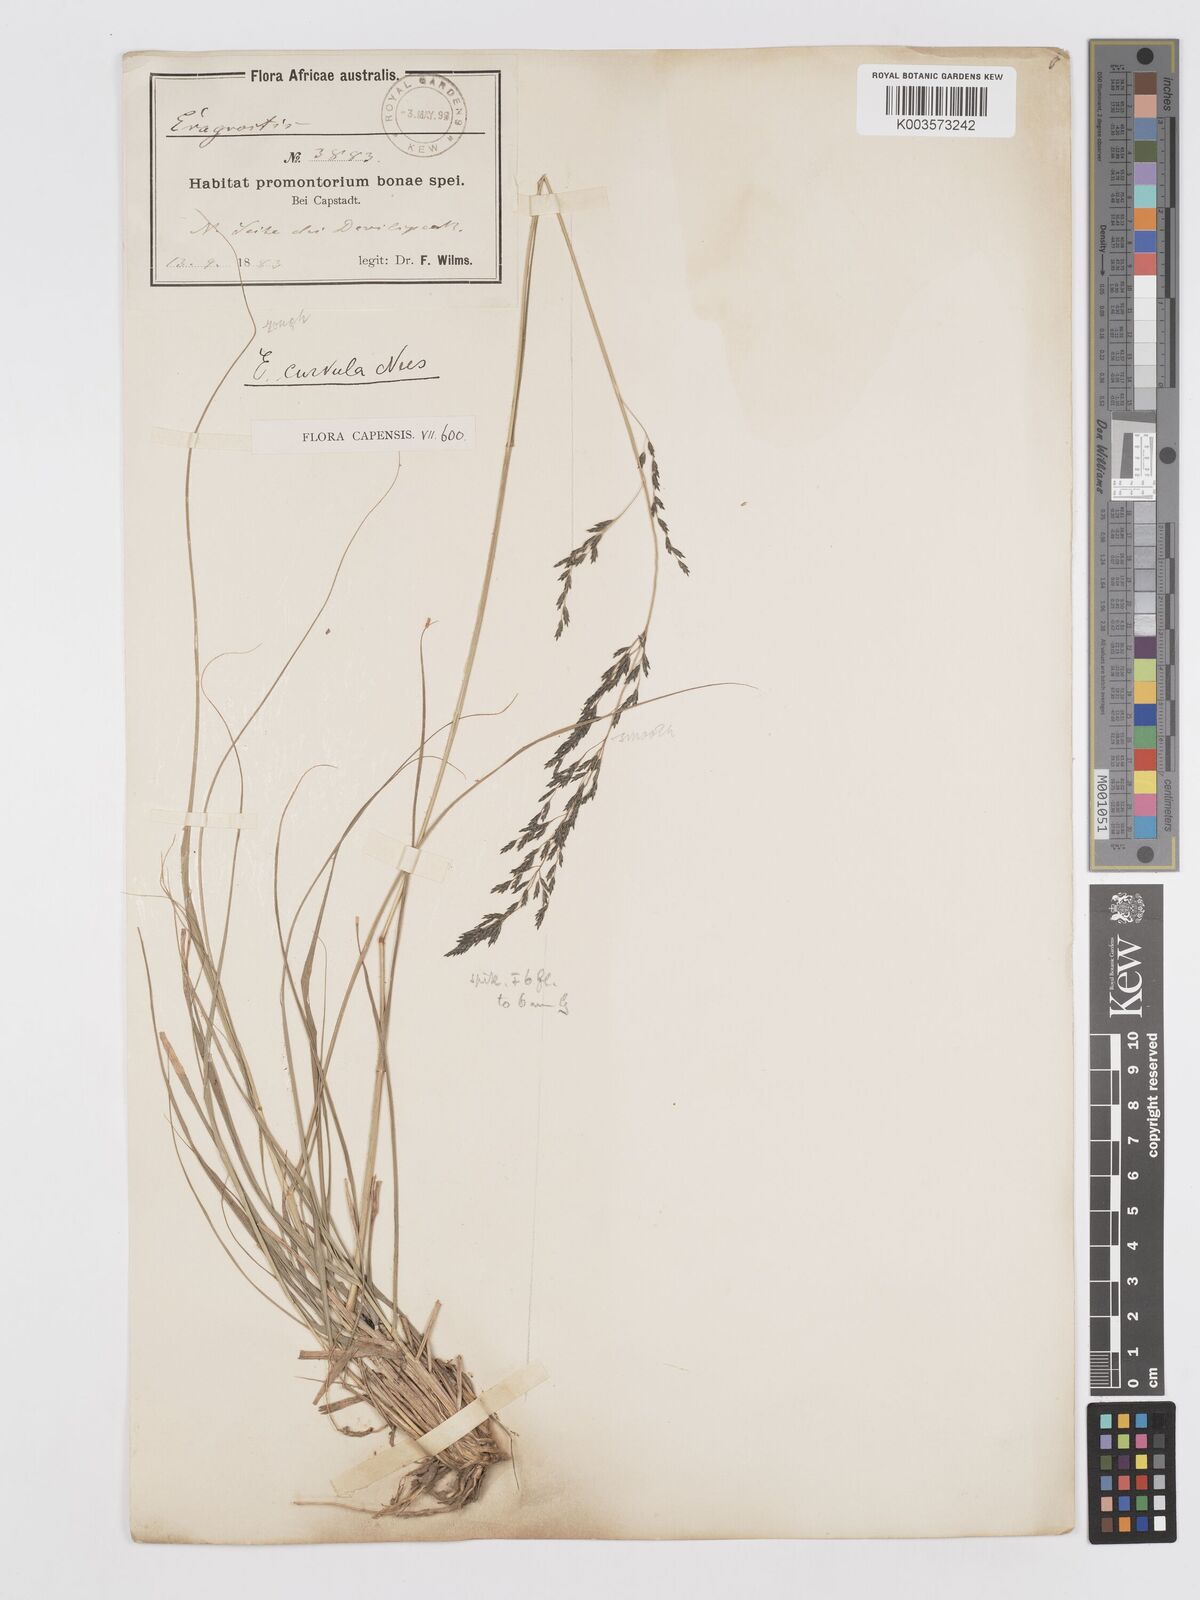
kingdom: Plantae
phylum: Tracheophyta
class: Liliopsida
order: Poales
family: Poaceae
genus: Eragrostis
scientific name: Eragrostis curvula
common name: African love-grass
